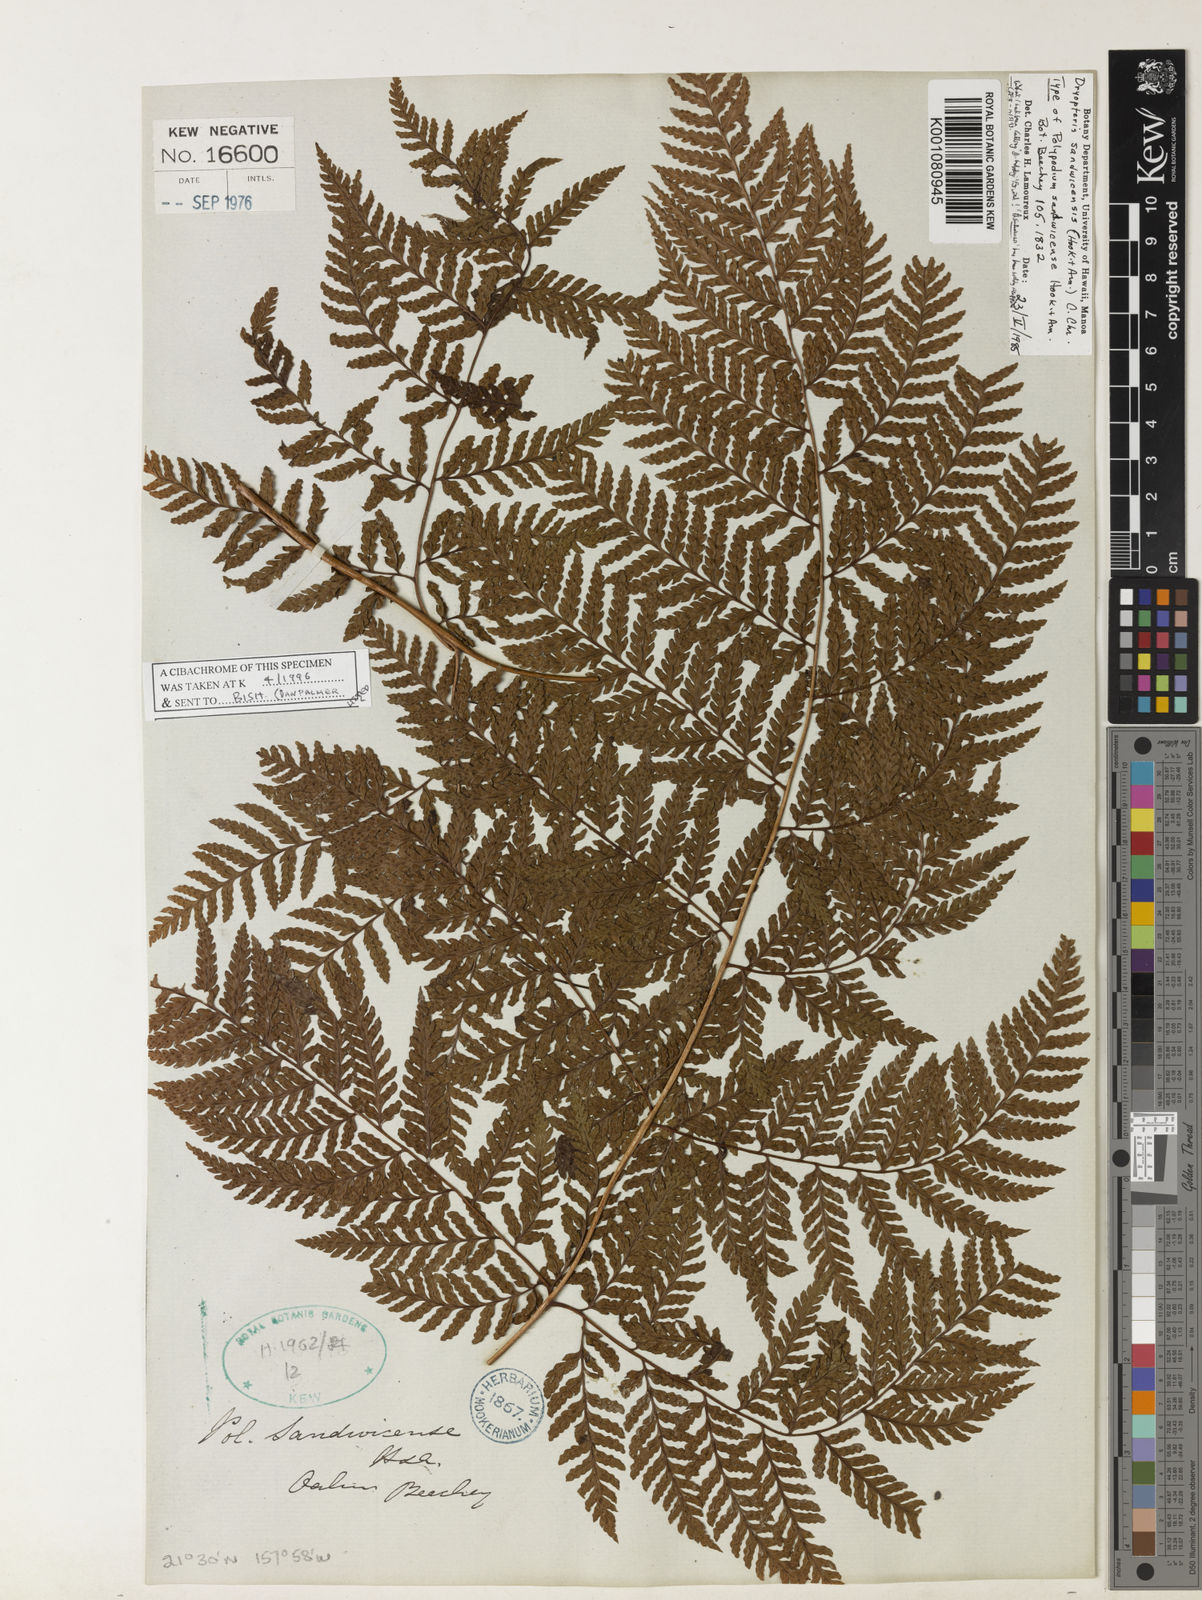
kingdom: Plantae
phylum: Tracheophyta
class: Polypodiopsida
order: Polypodiales
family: Dryopteridaceae
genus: Dryopteris
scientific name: Dryopteris sandwicensis
